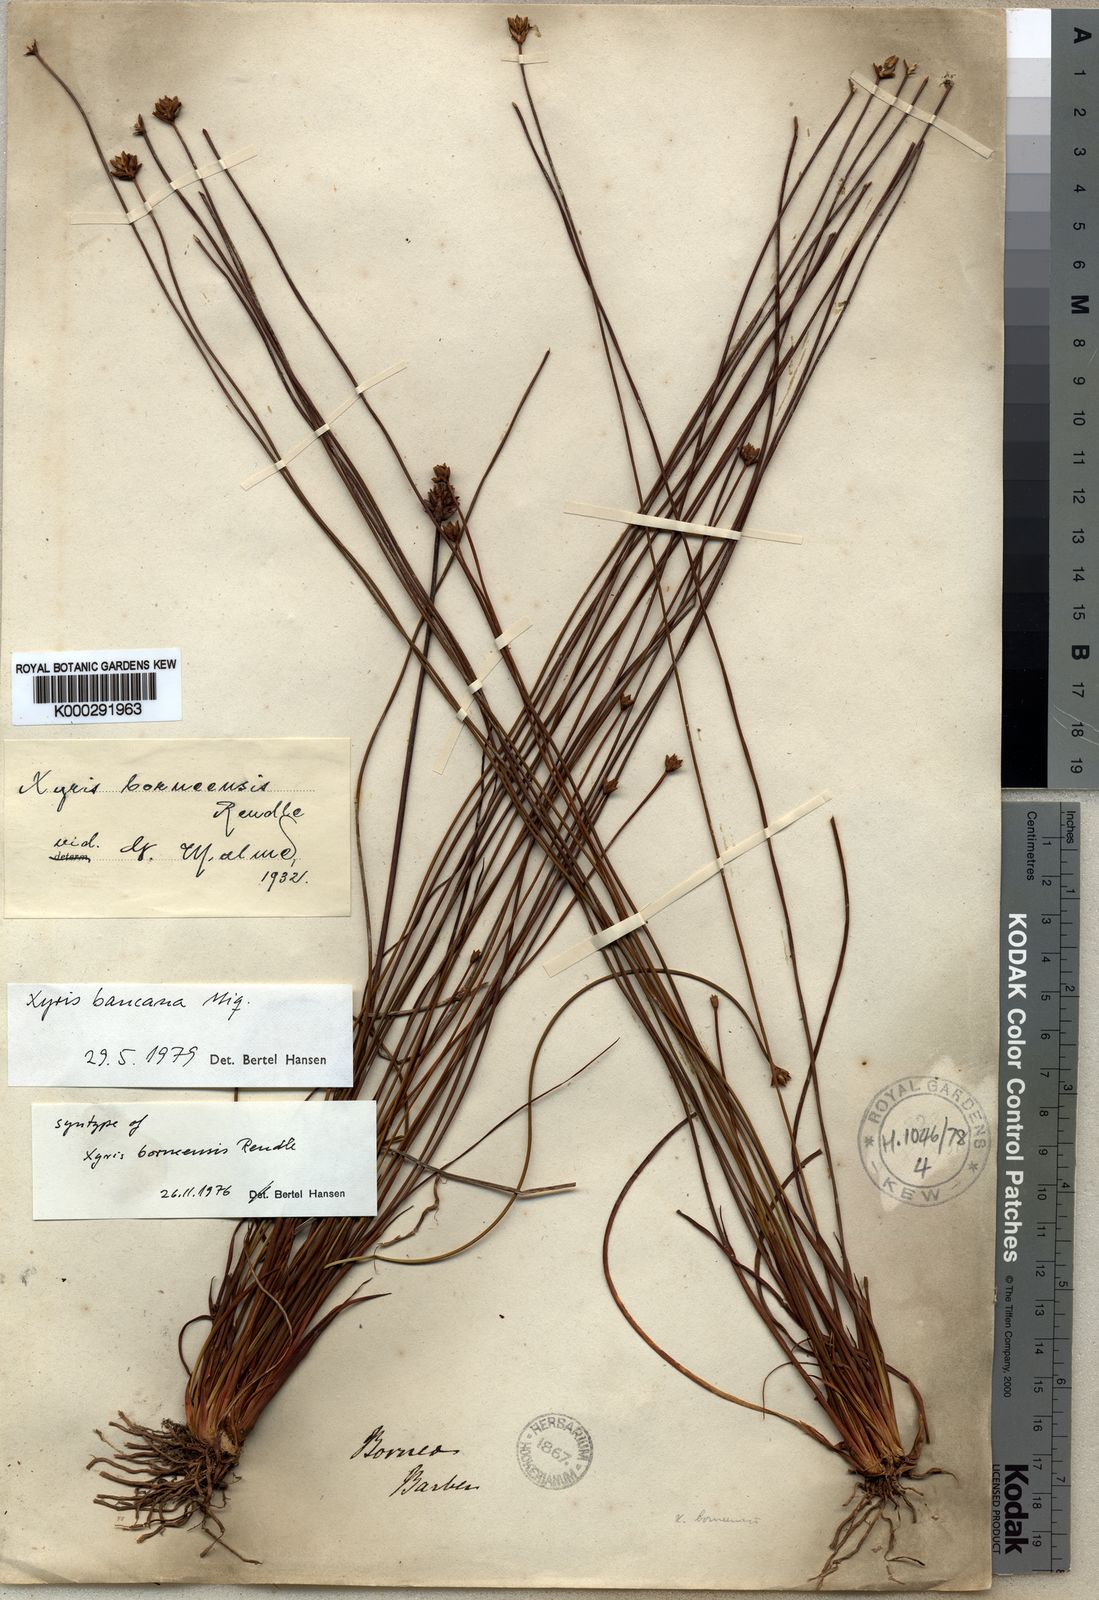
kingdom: Plantae
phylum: Tracheophyta
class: Liliopsida
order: Poales
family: Xyridaceae
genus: Xyris
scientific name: Xyris bancana
